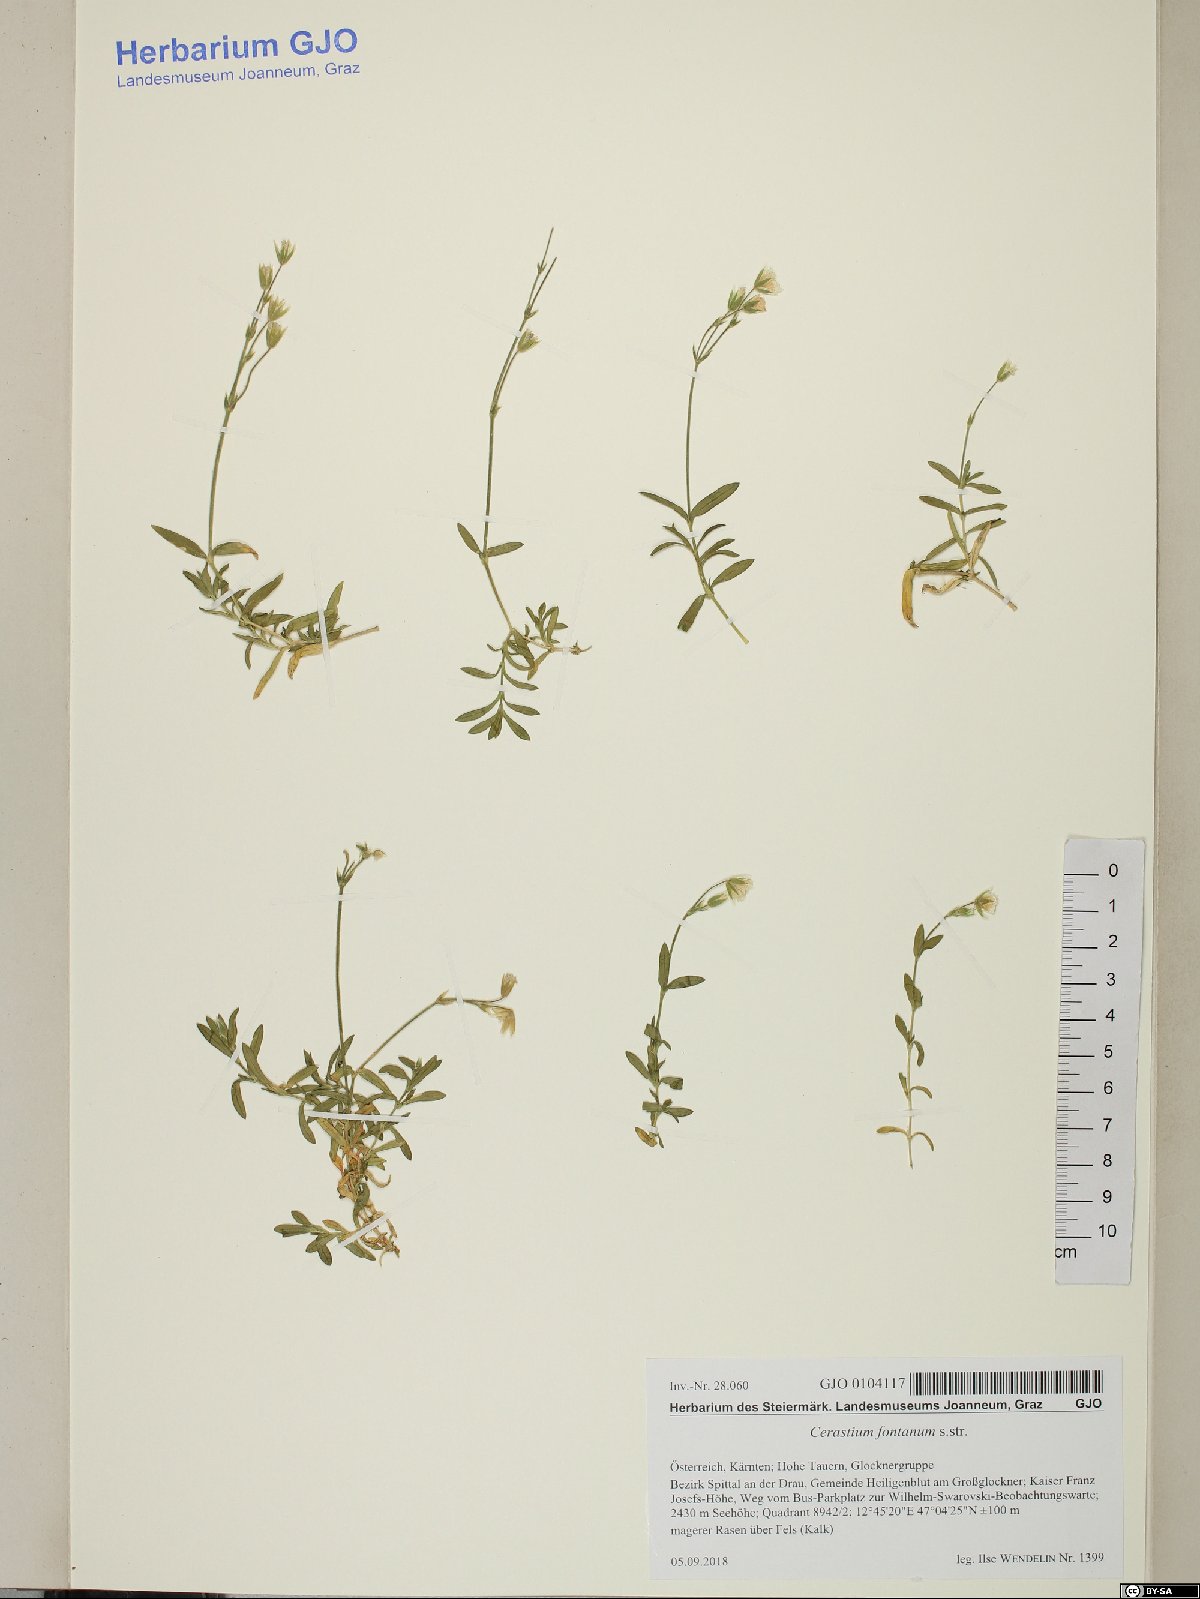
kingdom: Plantae
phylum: Tracheophyta
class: Magnoliopsida
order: Caryophyllales
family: Caryophyllaceae
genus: Cerastium
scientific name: Cerastium fontanum
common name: Common mouse-ear
